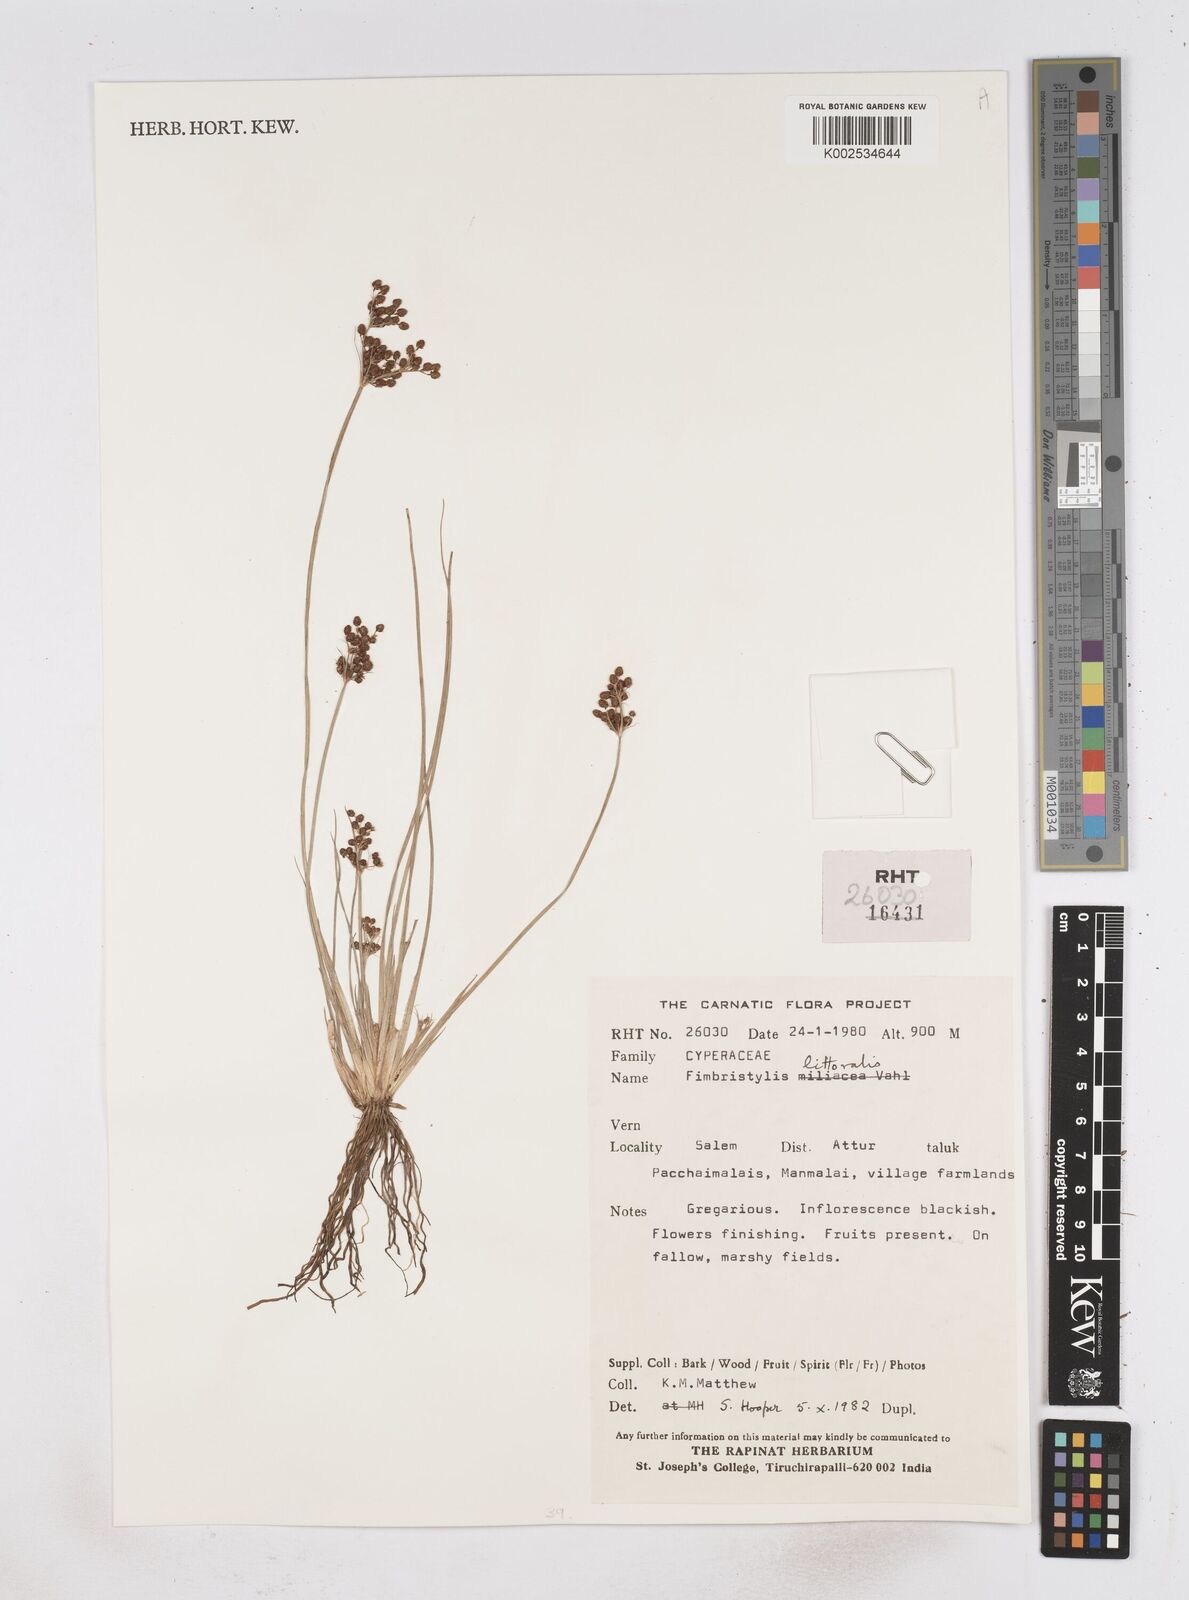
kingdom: Plantae
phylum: Tracheophyta
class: Liliopsida
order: Poales
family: Cyperaceae
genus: Fimbristylis
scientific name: Fimbristylis littoralis
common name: Fimbry
